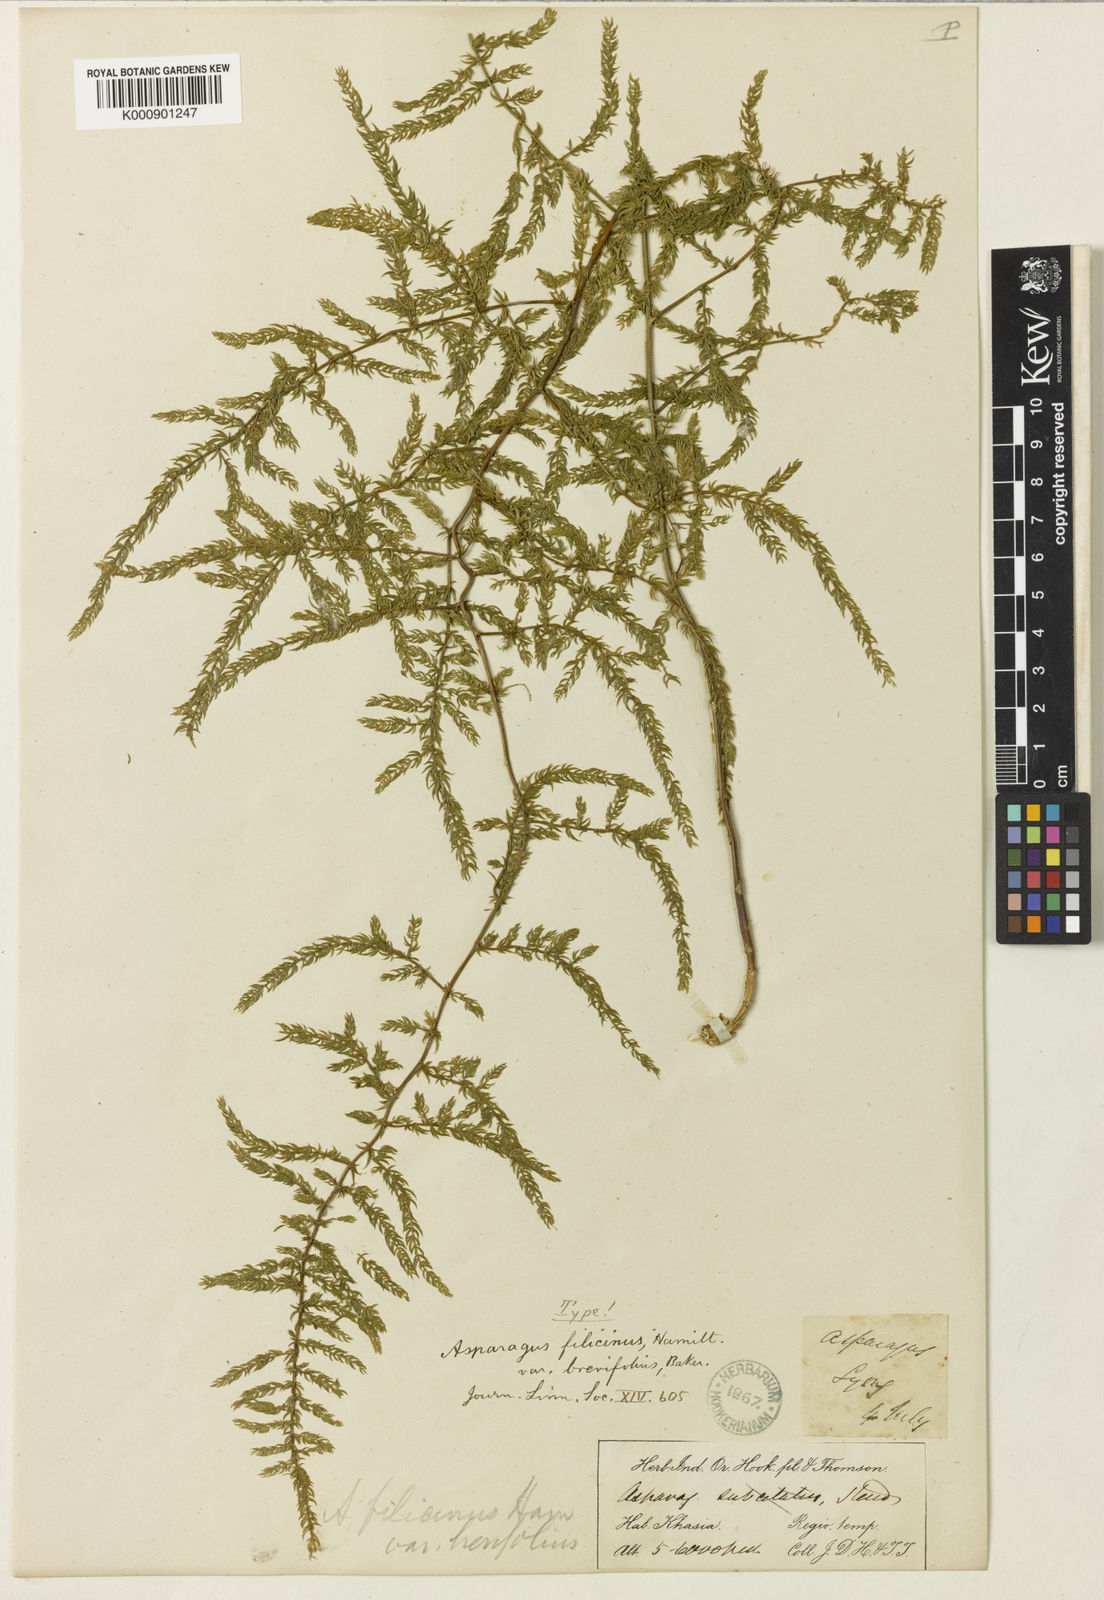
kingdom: Plantae
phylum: Tracheophyta
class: Liliopsida
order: Asparagales
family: Asparagaceae
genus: Asparagus
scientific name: Asparagus filicinus
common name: Fern asparagus
